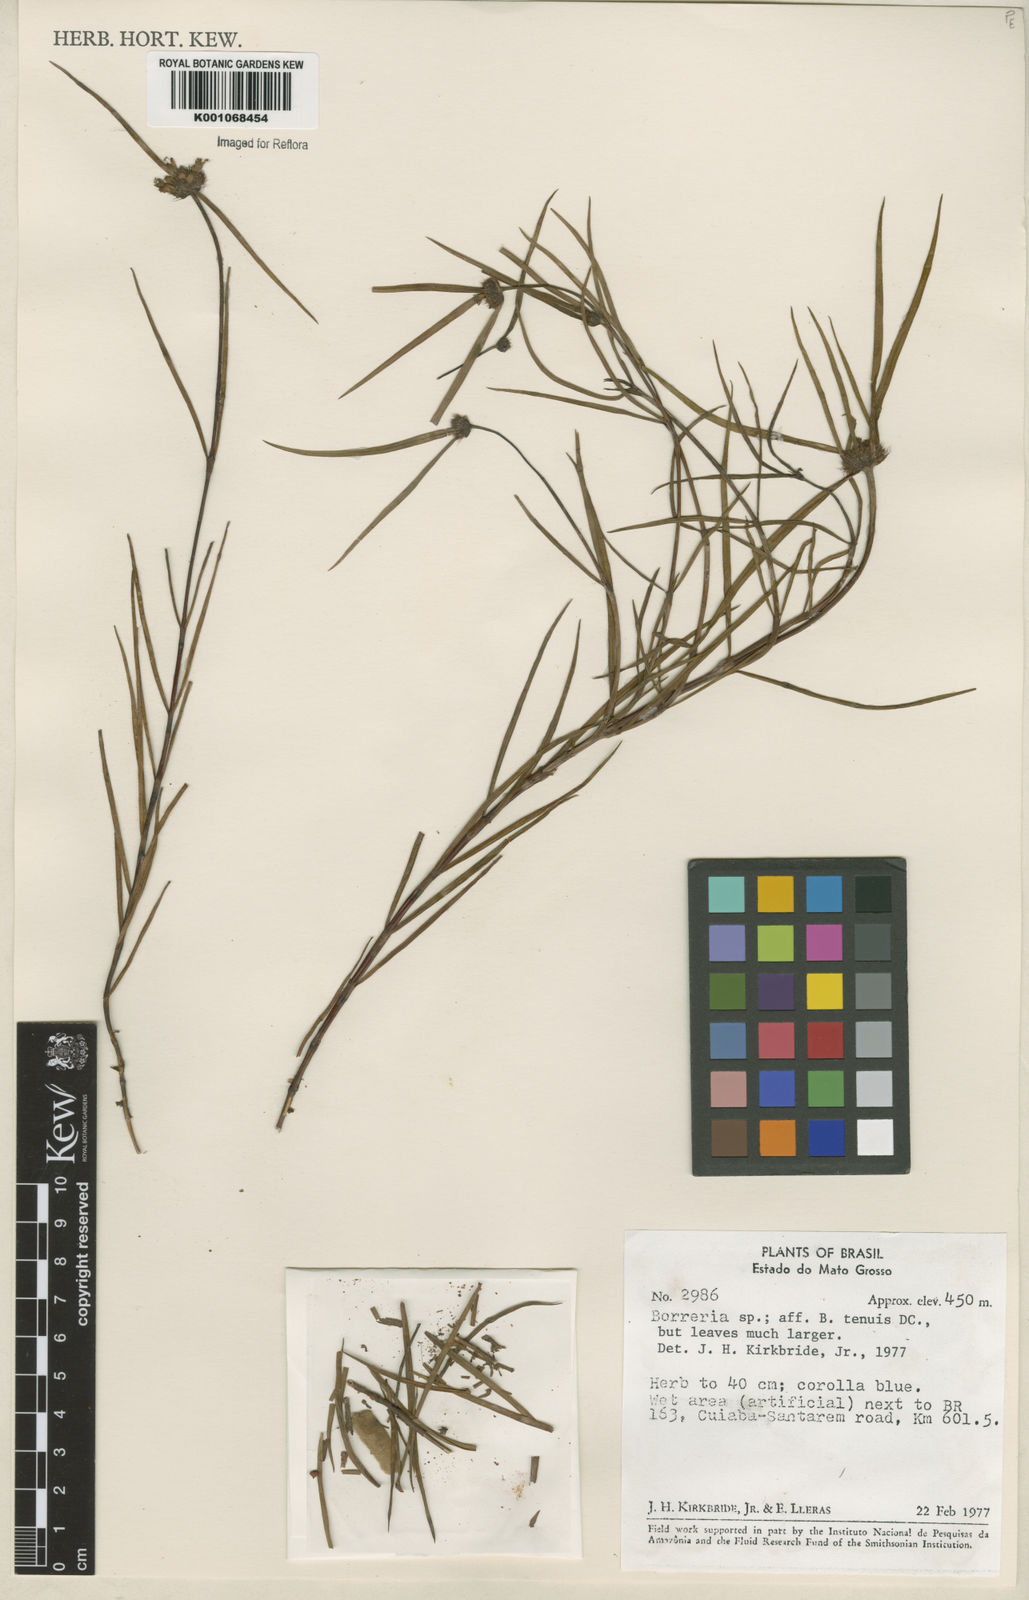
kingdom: Plantae
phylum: Tracheophyta
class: Magnoliopsida
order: Gentianales
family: Rubiaceae
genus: Spermacoce
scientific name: Spermacoce neotenuis
